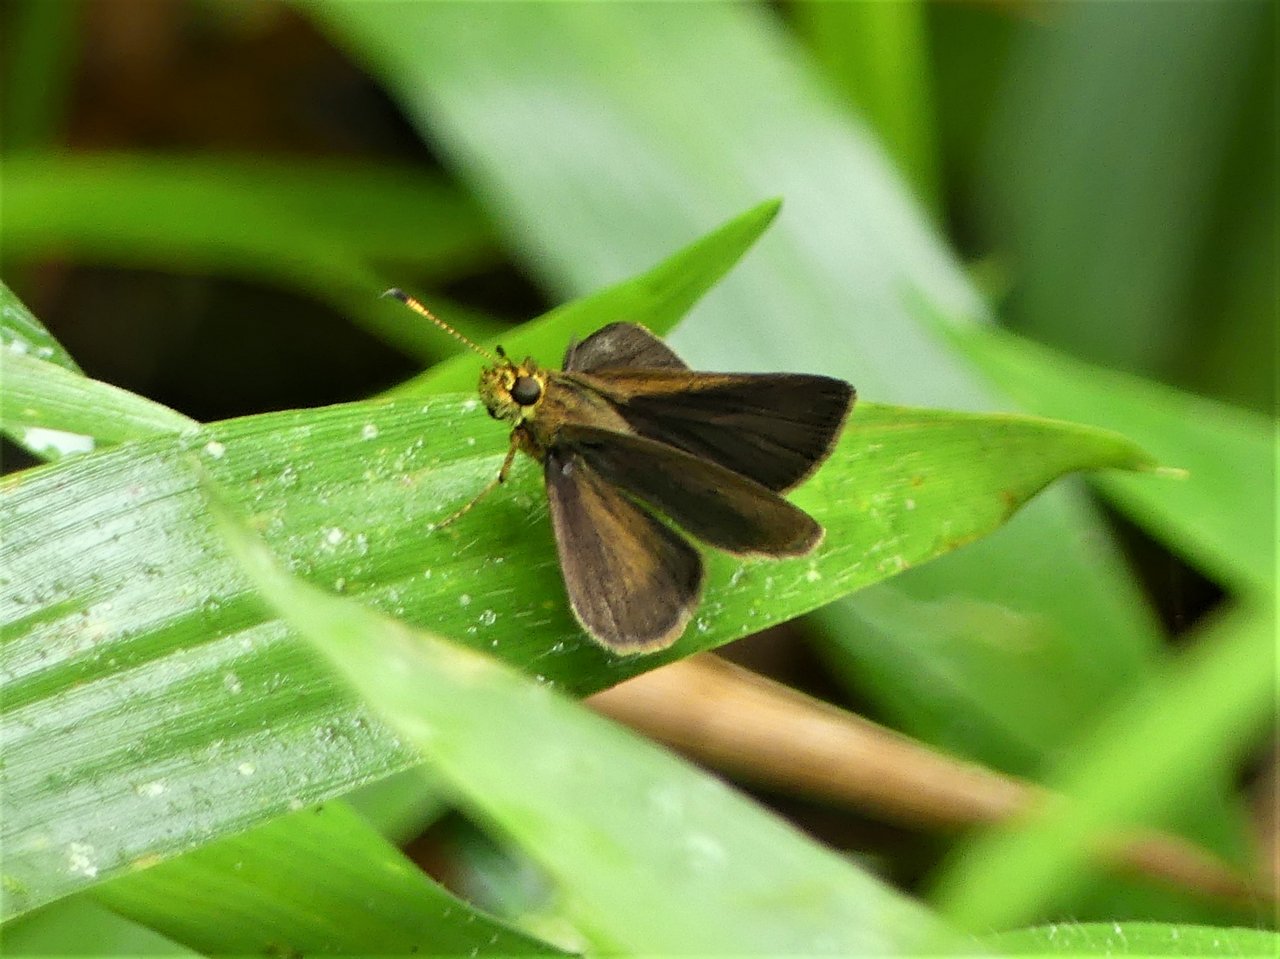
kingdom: Animalia
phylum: Arthropoda
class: Insecta
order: Lepidoptera
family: Hesperiidae
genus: Corticea
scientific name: Corticea corticea
